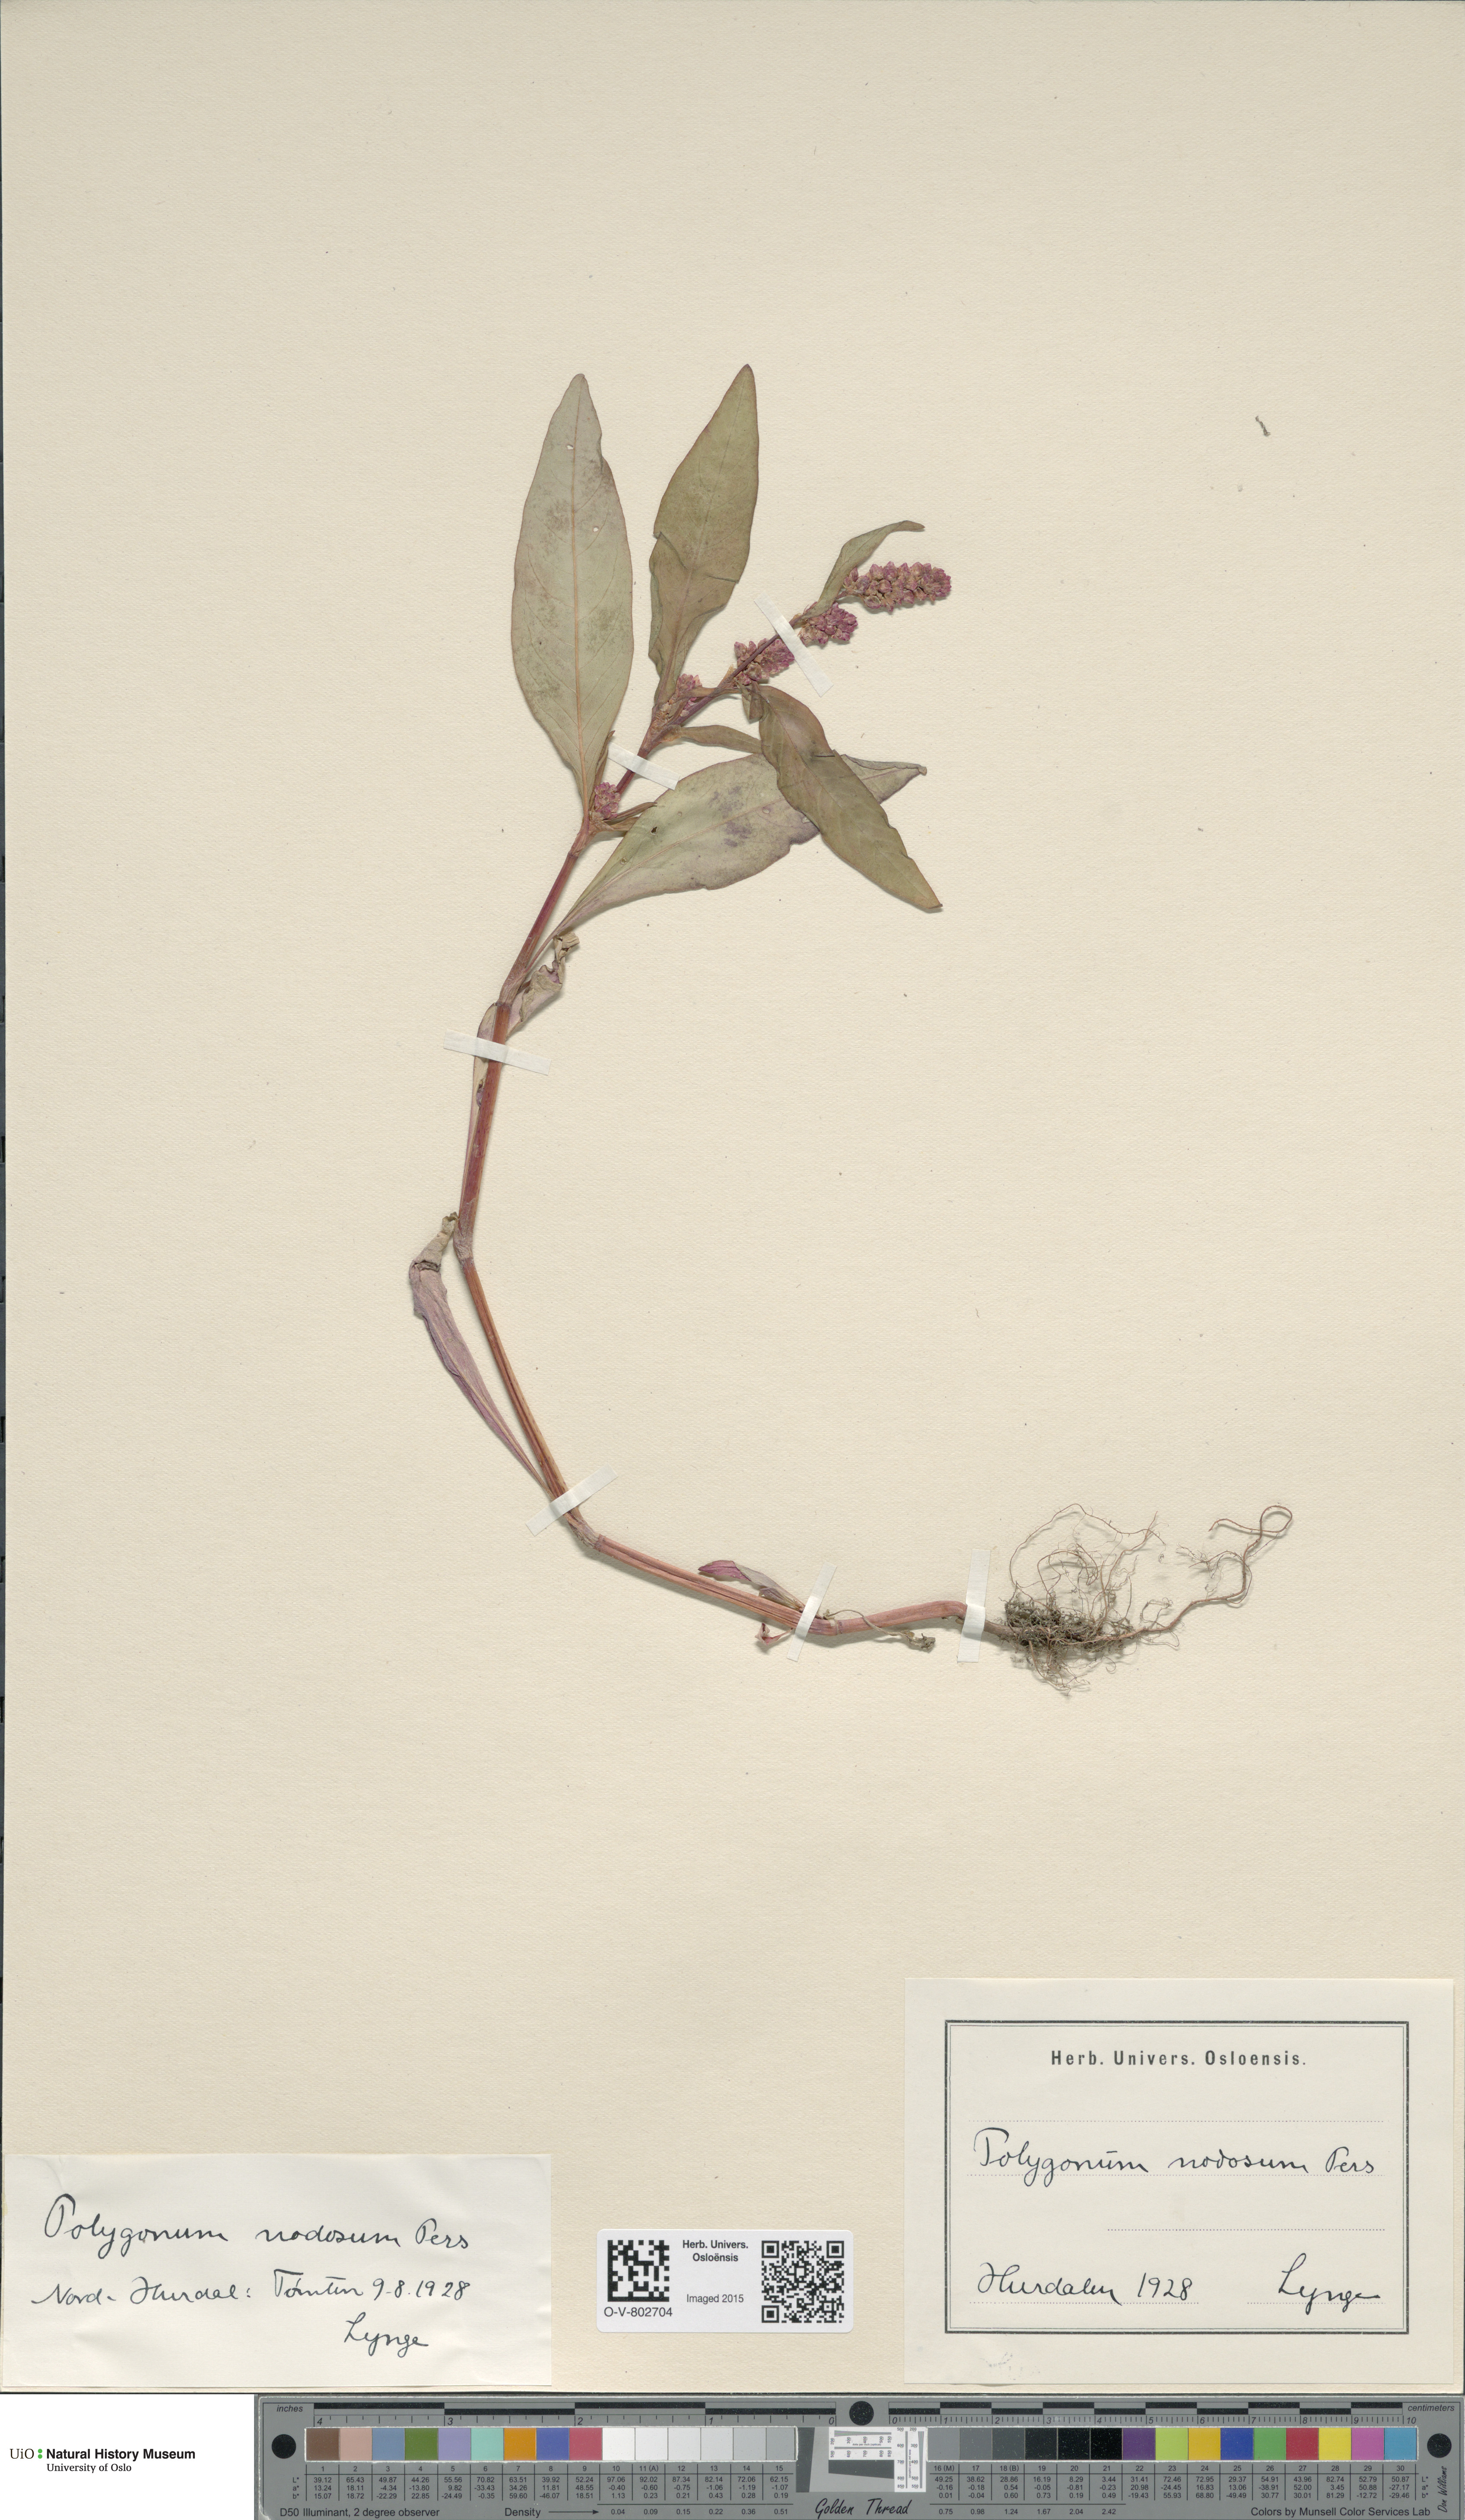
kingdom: Plantae
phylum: Tracheophyta
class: Magnoliopsida
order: Caryophyllales
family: Polygonaceae
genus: Persicaria
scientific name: Persicaria lapathifolia
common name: Curlytop knotweed
